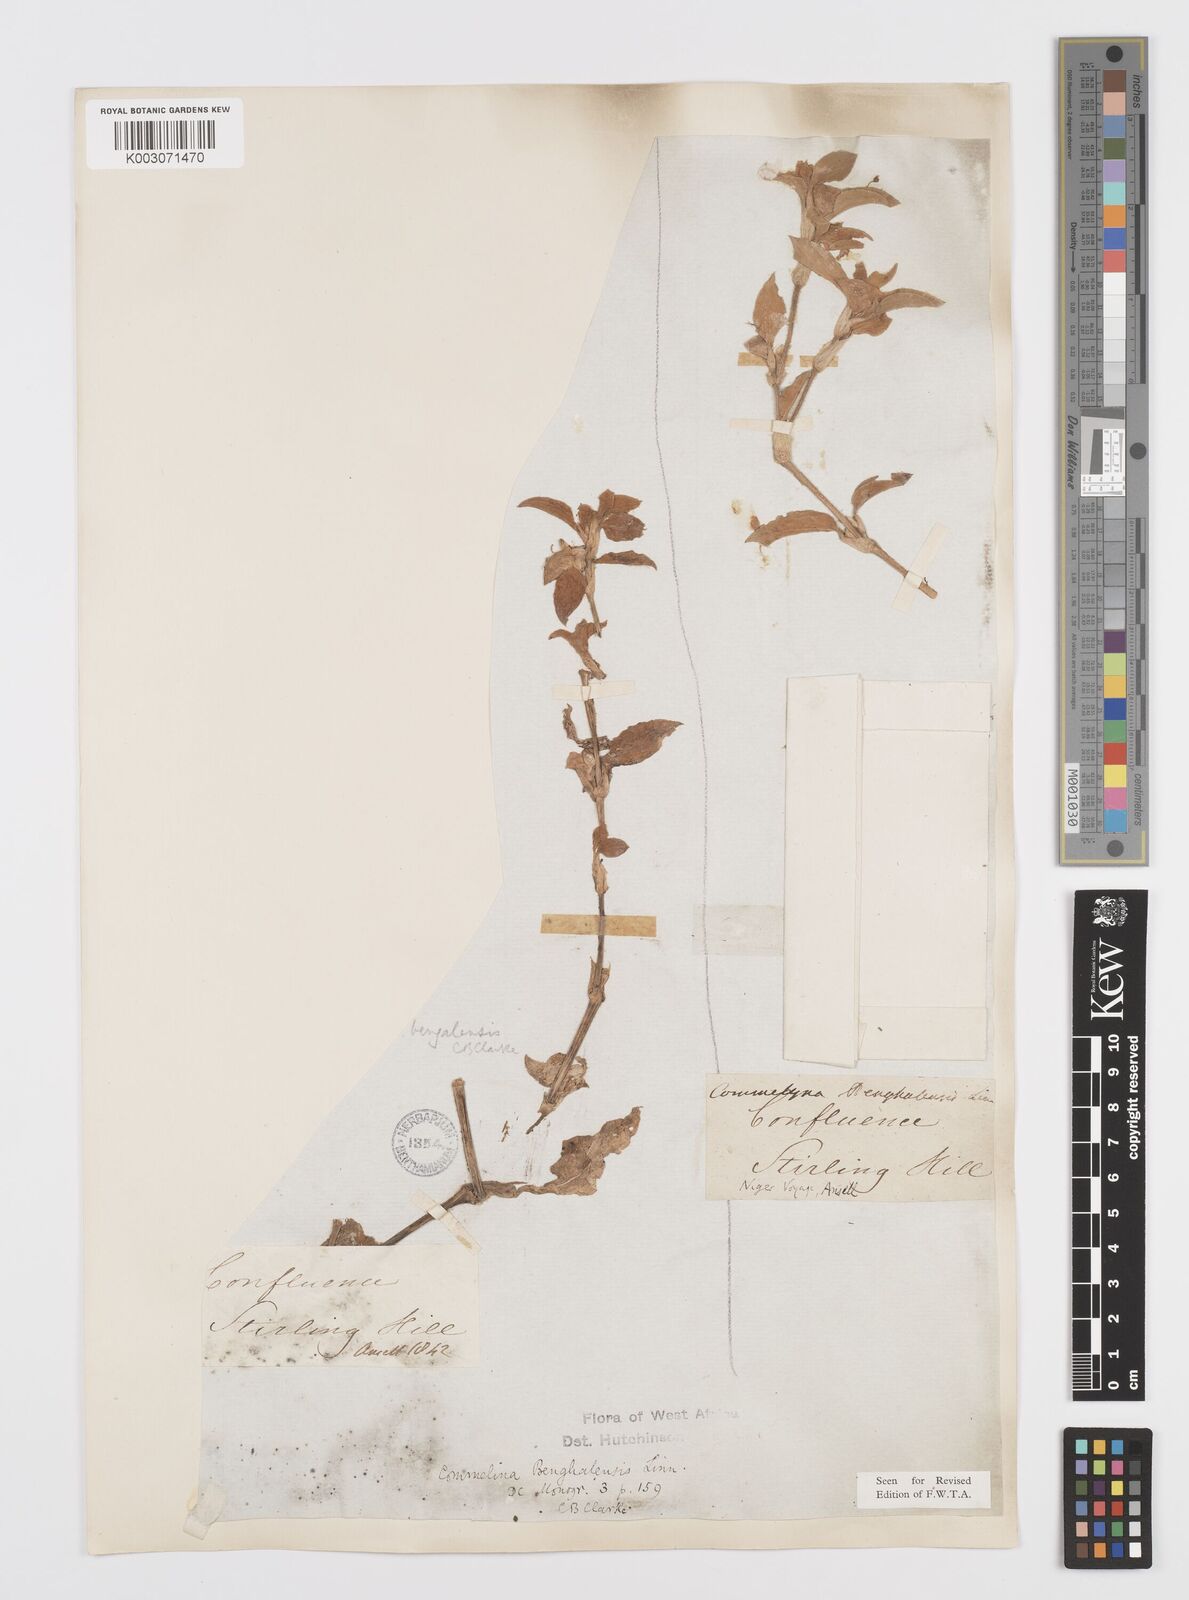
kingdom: Plantae
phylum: Tracheophyta
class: Liliopsida
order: Commelinales
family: Commelinaceae
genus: Commelina
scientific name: Commelina benghalensis
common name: Jio
